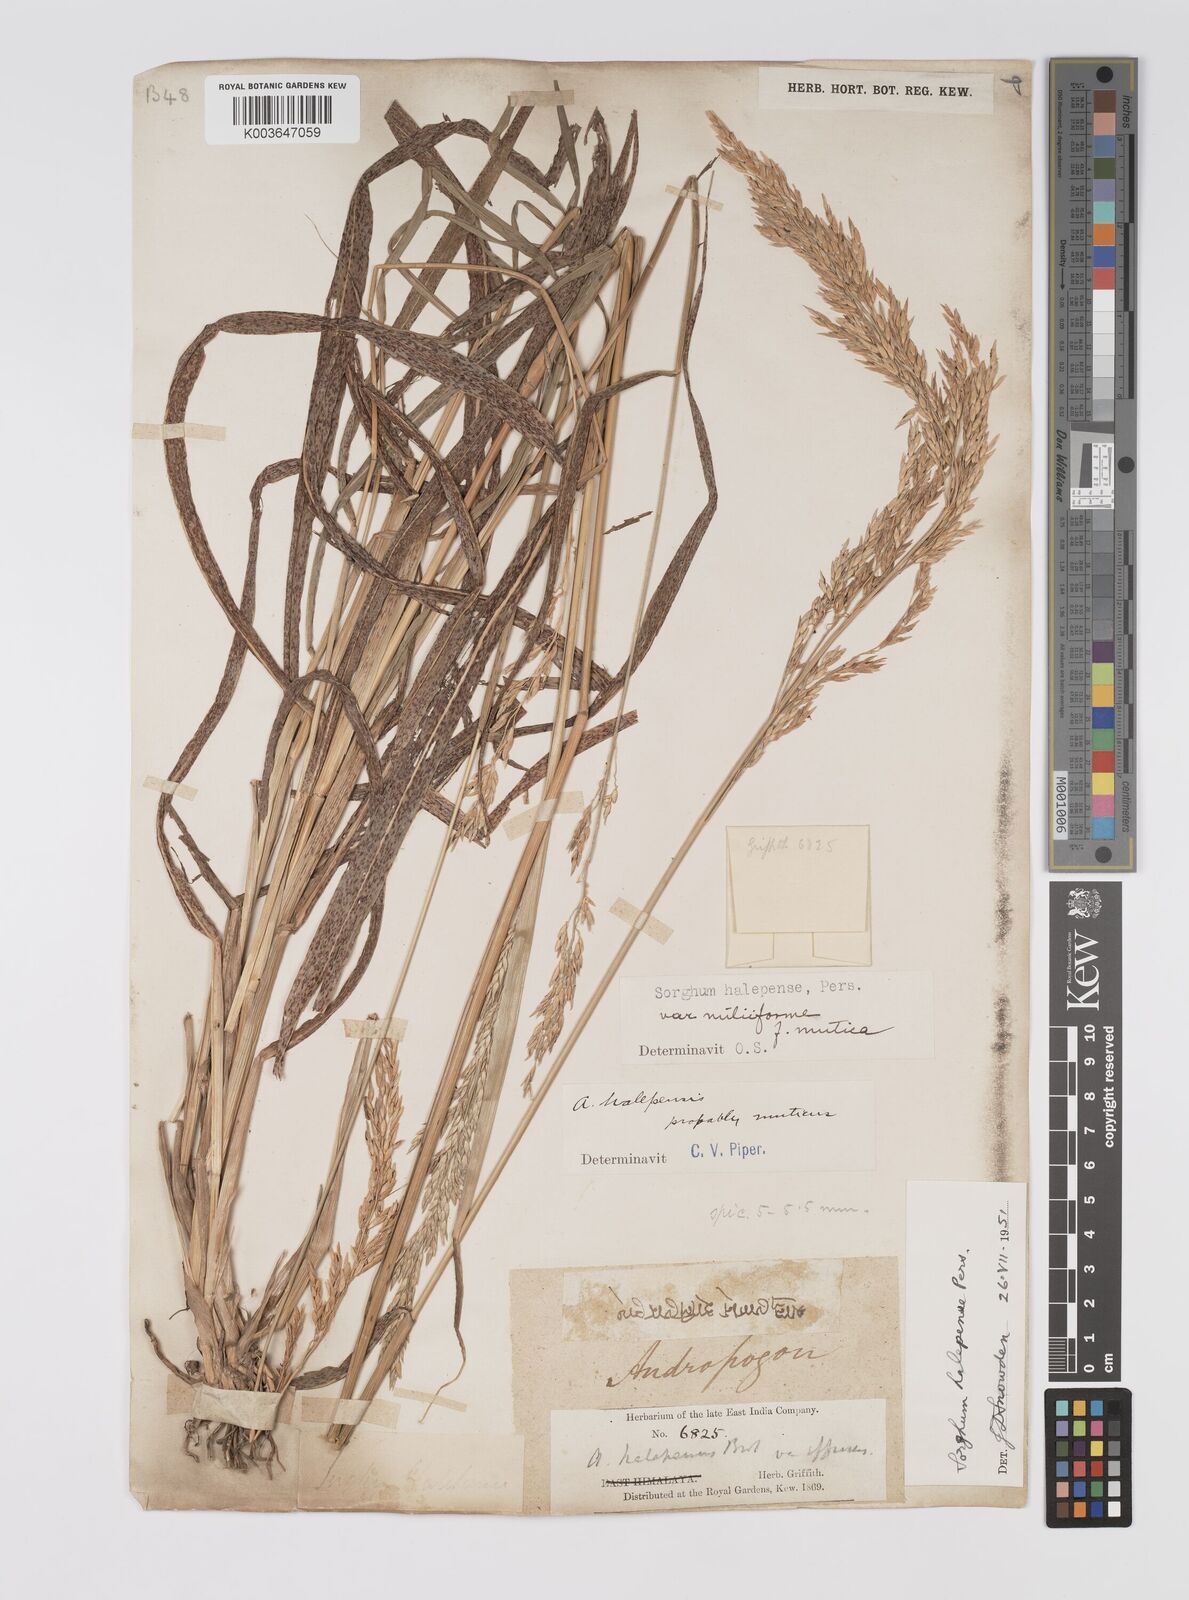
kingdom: Plantae
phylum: Tracheophyta
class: Liliopsida
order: Poales
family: Poaceae
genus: Sorghum
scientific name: Sorghum halepense
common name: Johnson-grass
